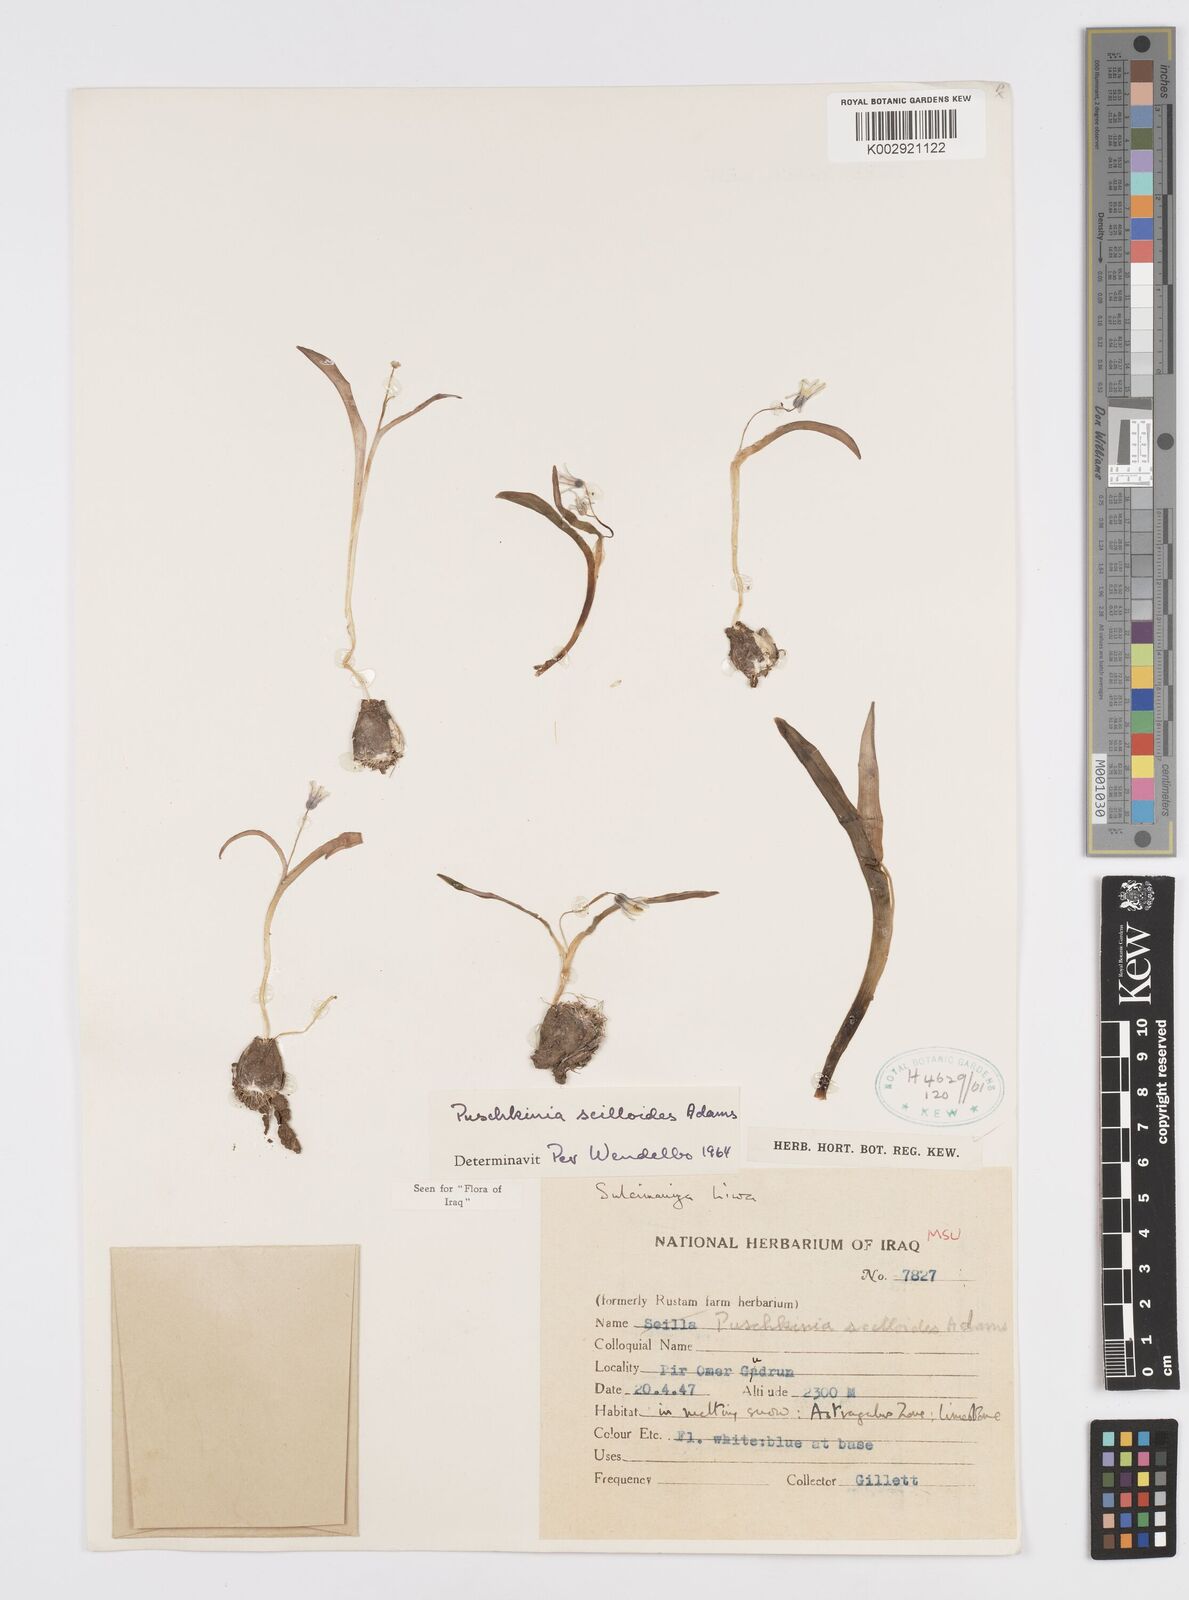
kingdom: Plantae
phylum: Tracheophyta
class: Liliopsida
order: Asparagales
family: Asparagaceae
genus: Puschkinia
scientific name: Puschkinia scilloides
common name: Striped squill
